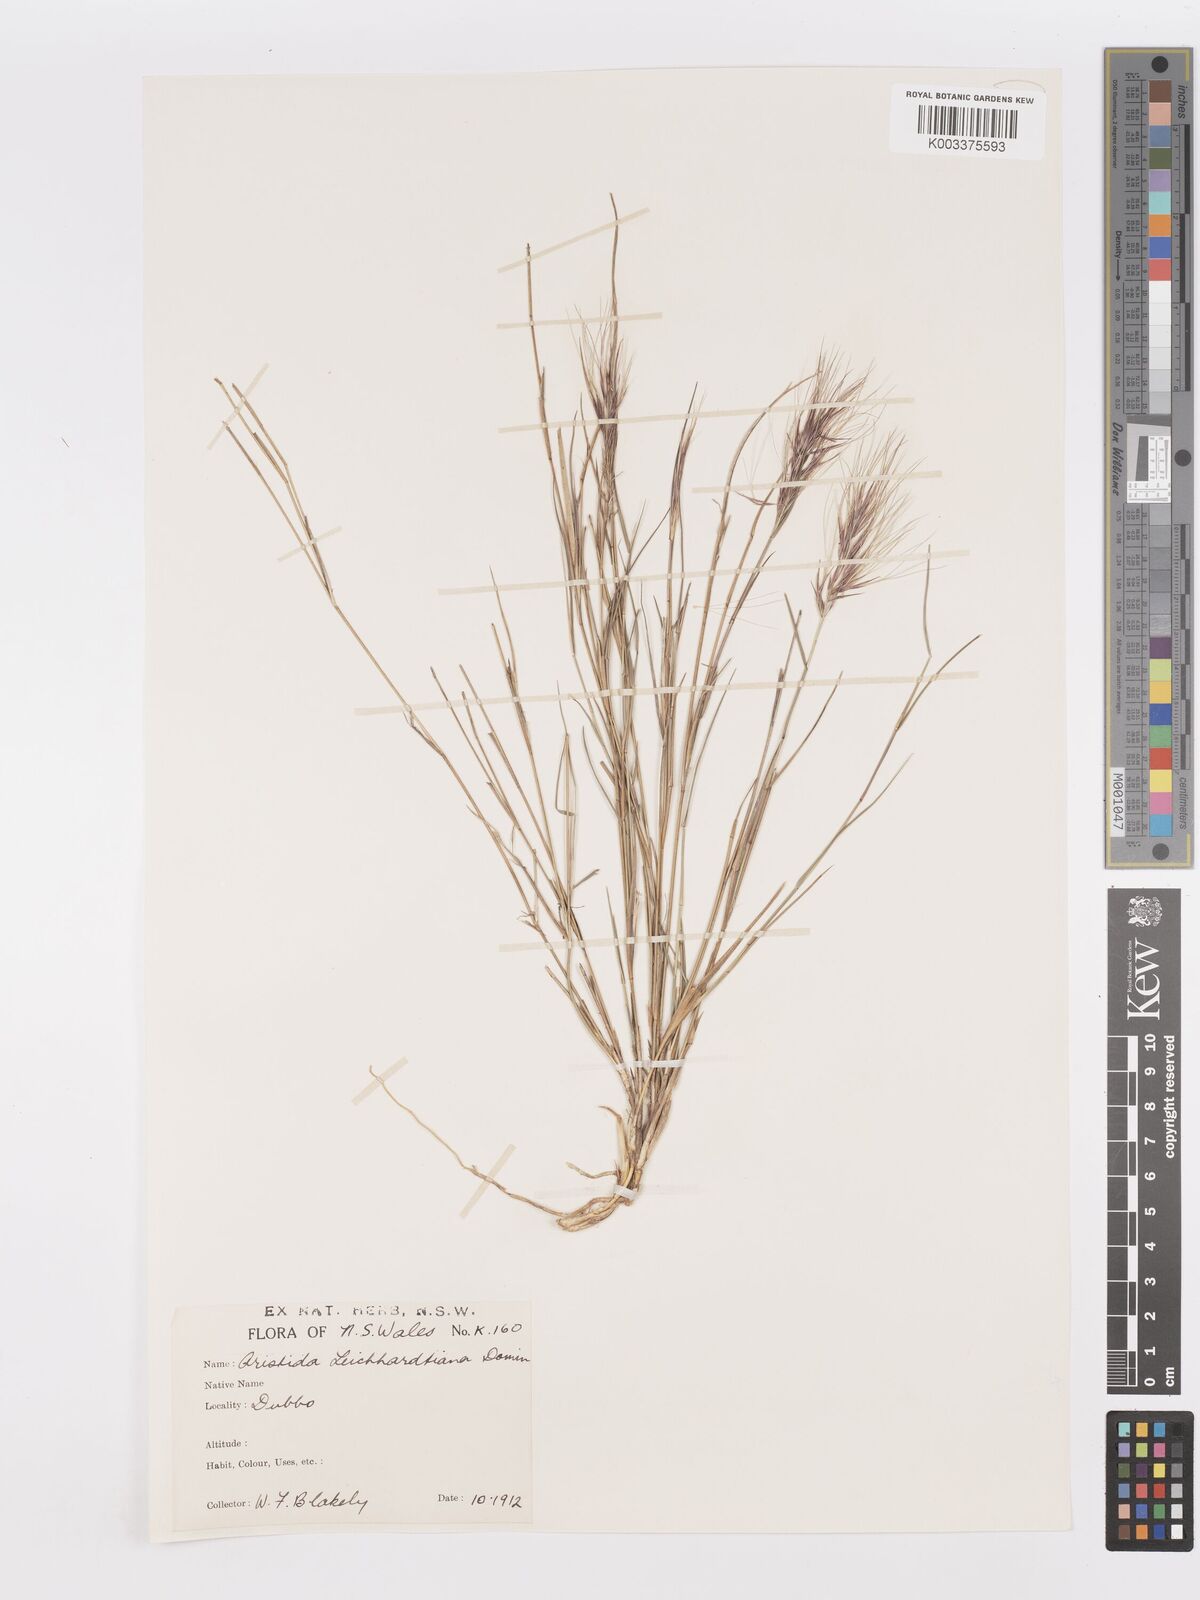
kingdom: Plantae
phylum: Tracheophyta
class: Liliopsida
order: Poales
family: Poaceae
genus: Aristida
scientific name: Aristida leichhardtiana
